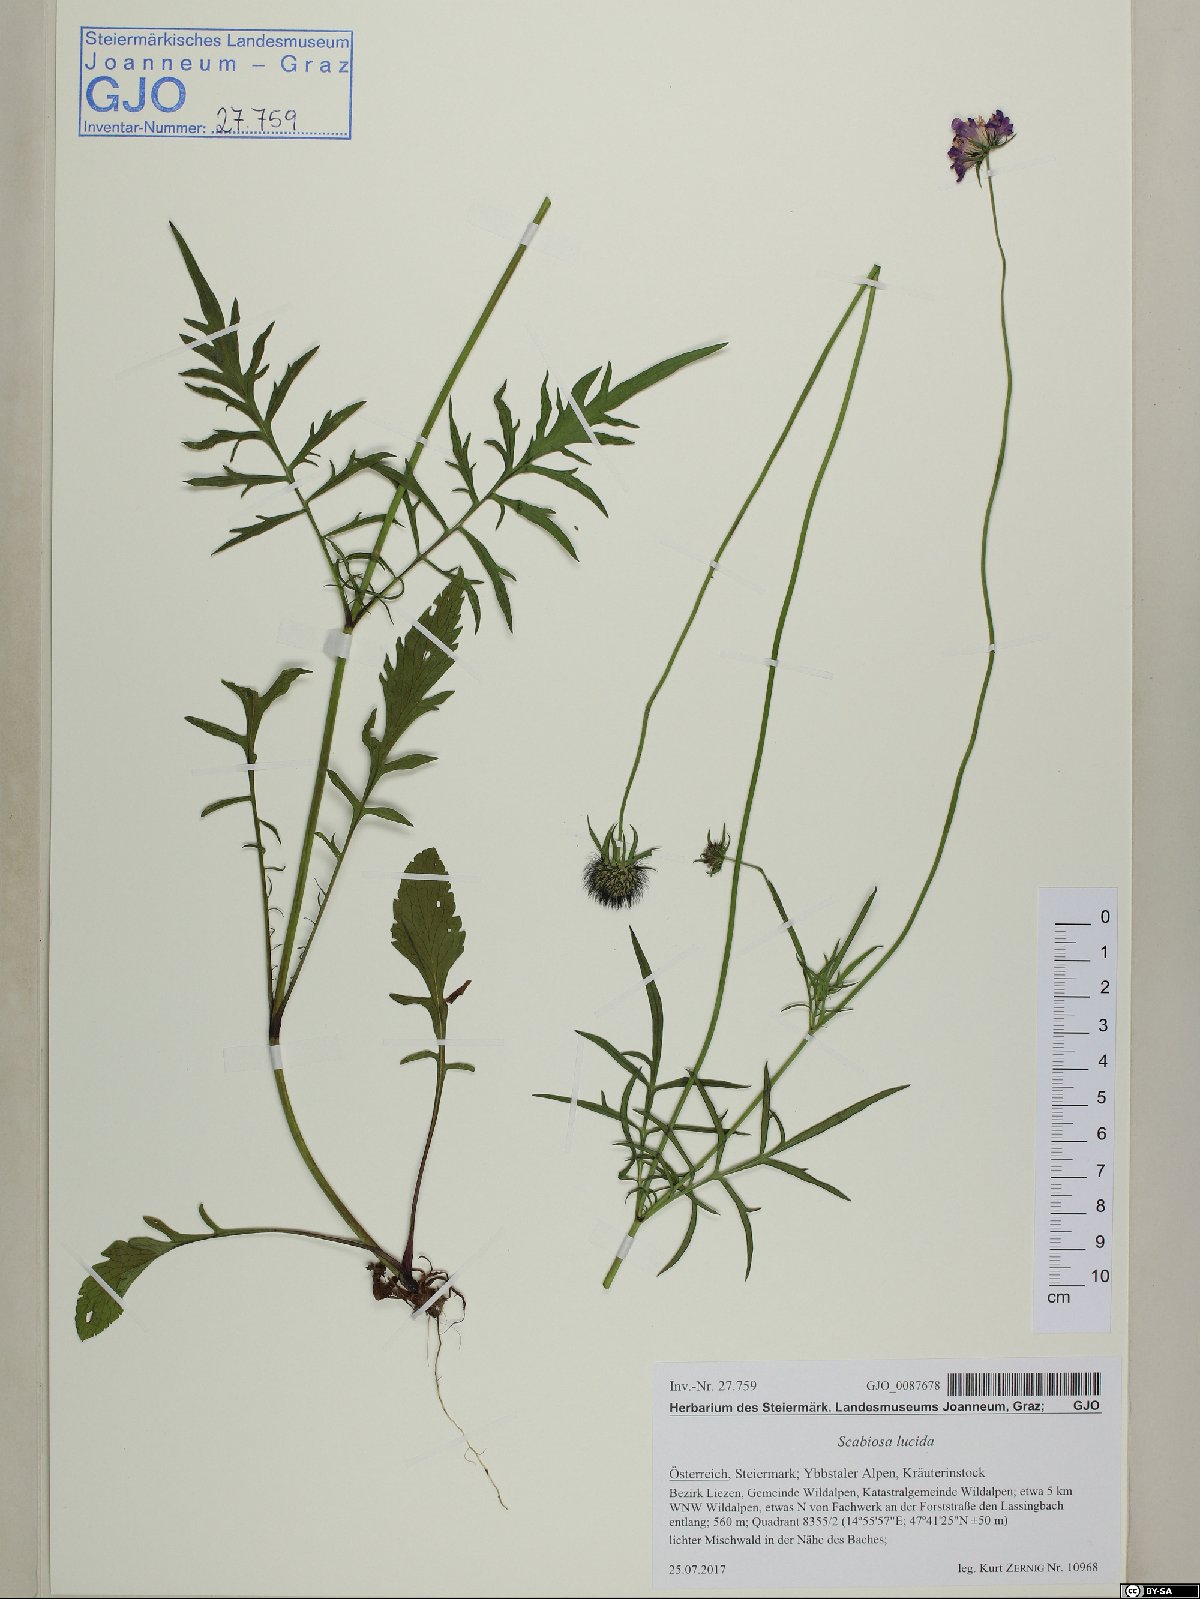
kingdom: Plantae
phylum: Tracheophyta
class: Magnoliopsida
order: Dipsacales
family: Caprifoliaceae
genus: Scabiosa
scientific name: Scabiosa lucida
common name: Shining scabious
